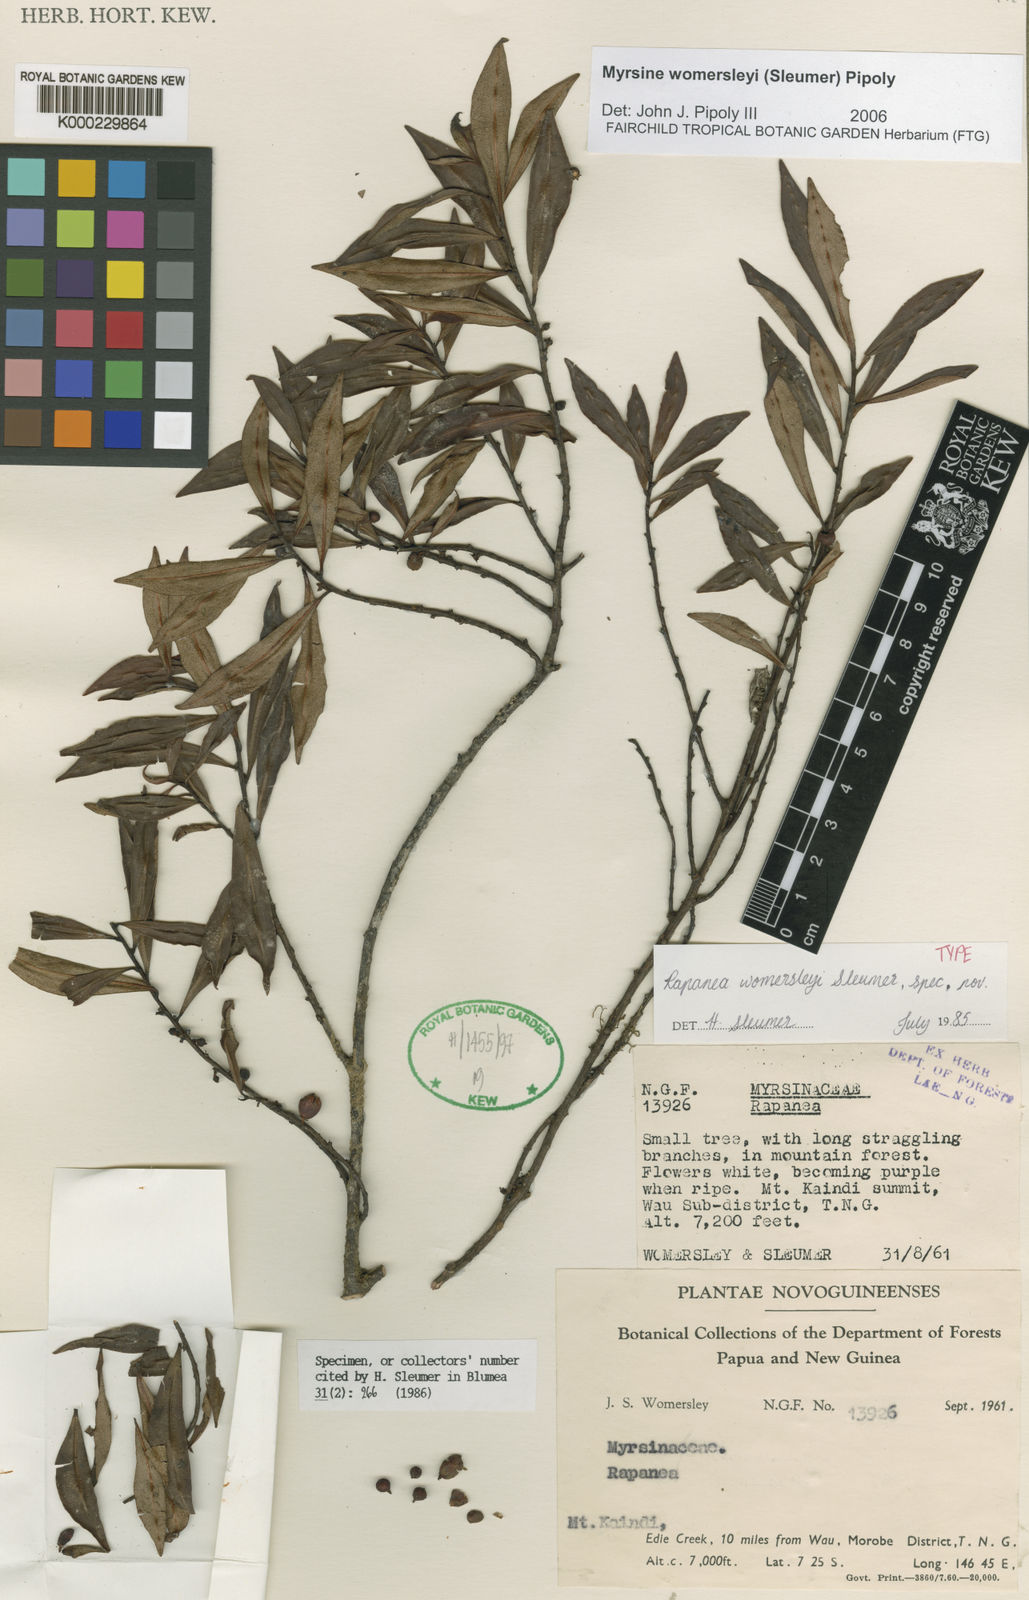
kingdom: Plantae
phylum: Tracheophyta
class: Magnoliopsida
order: Ericales
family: Primulaceae
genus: Myrsine
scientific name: Myrsine womersleyi
